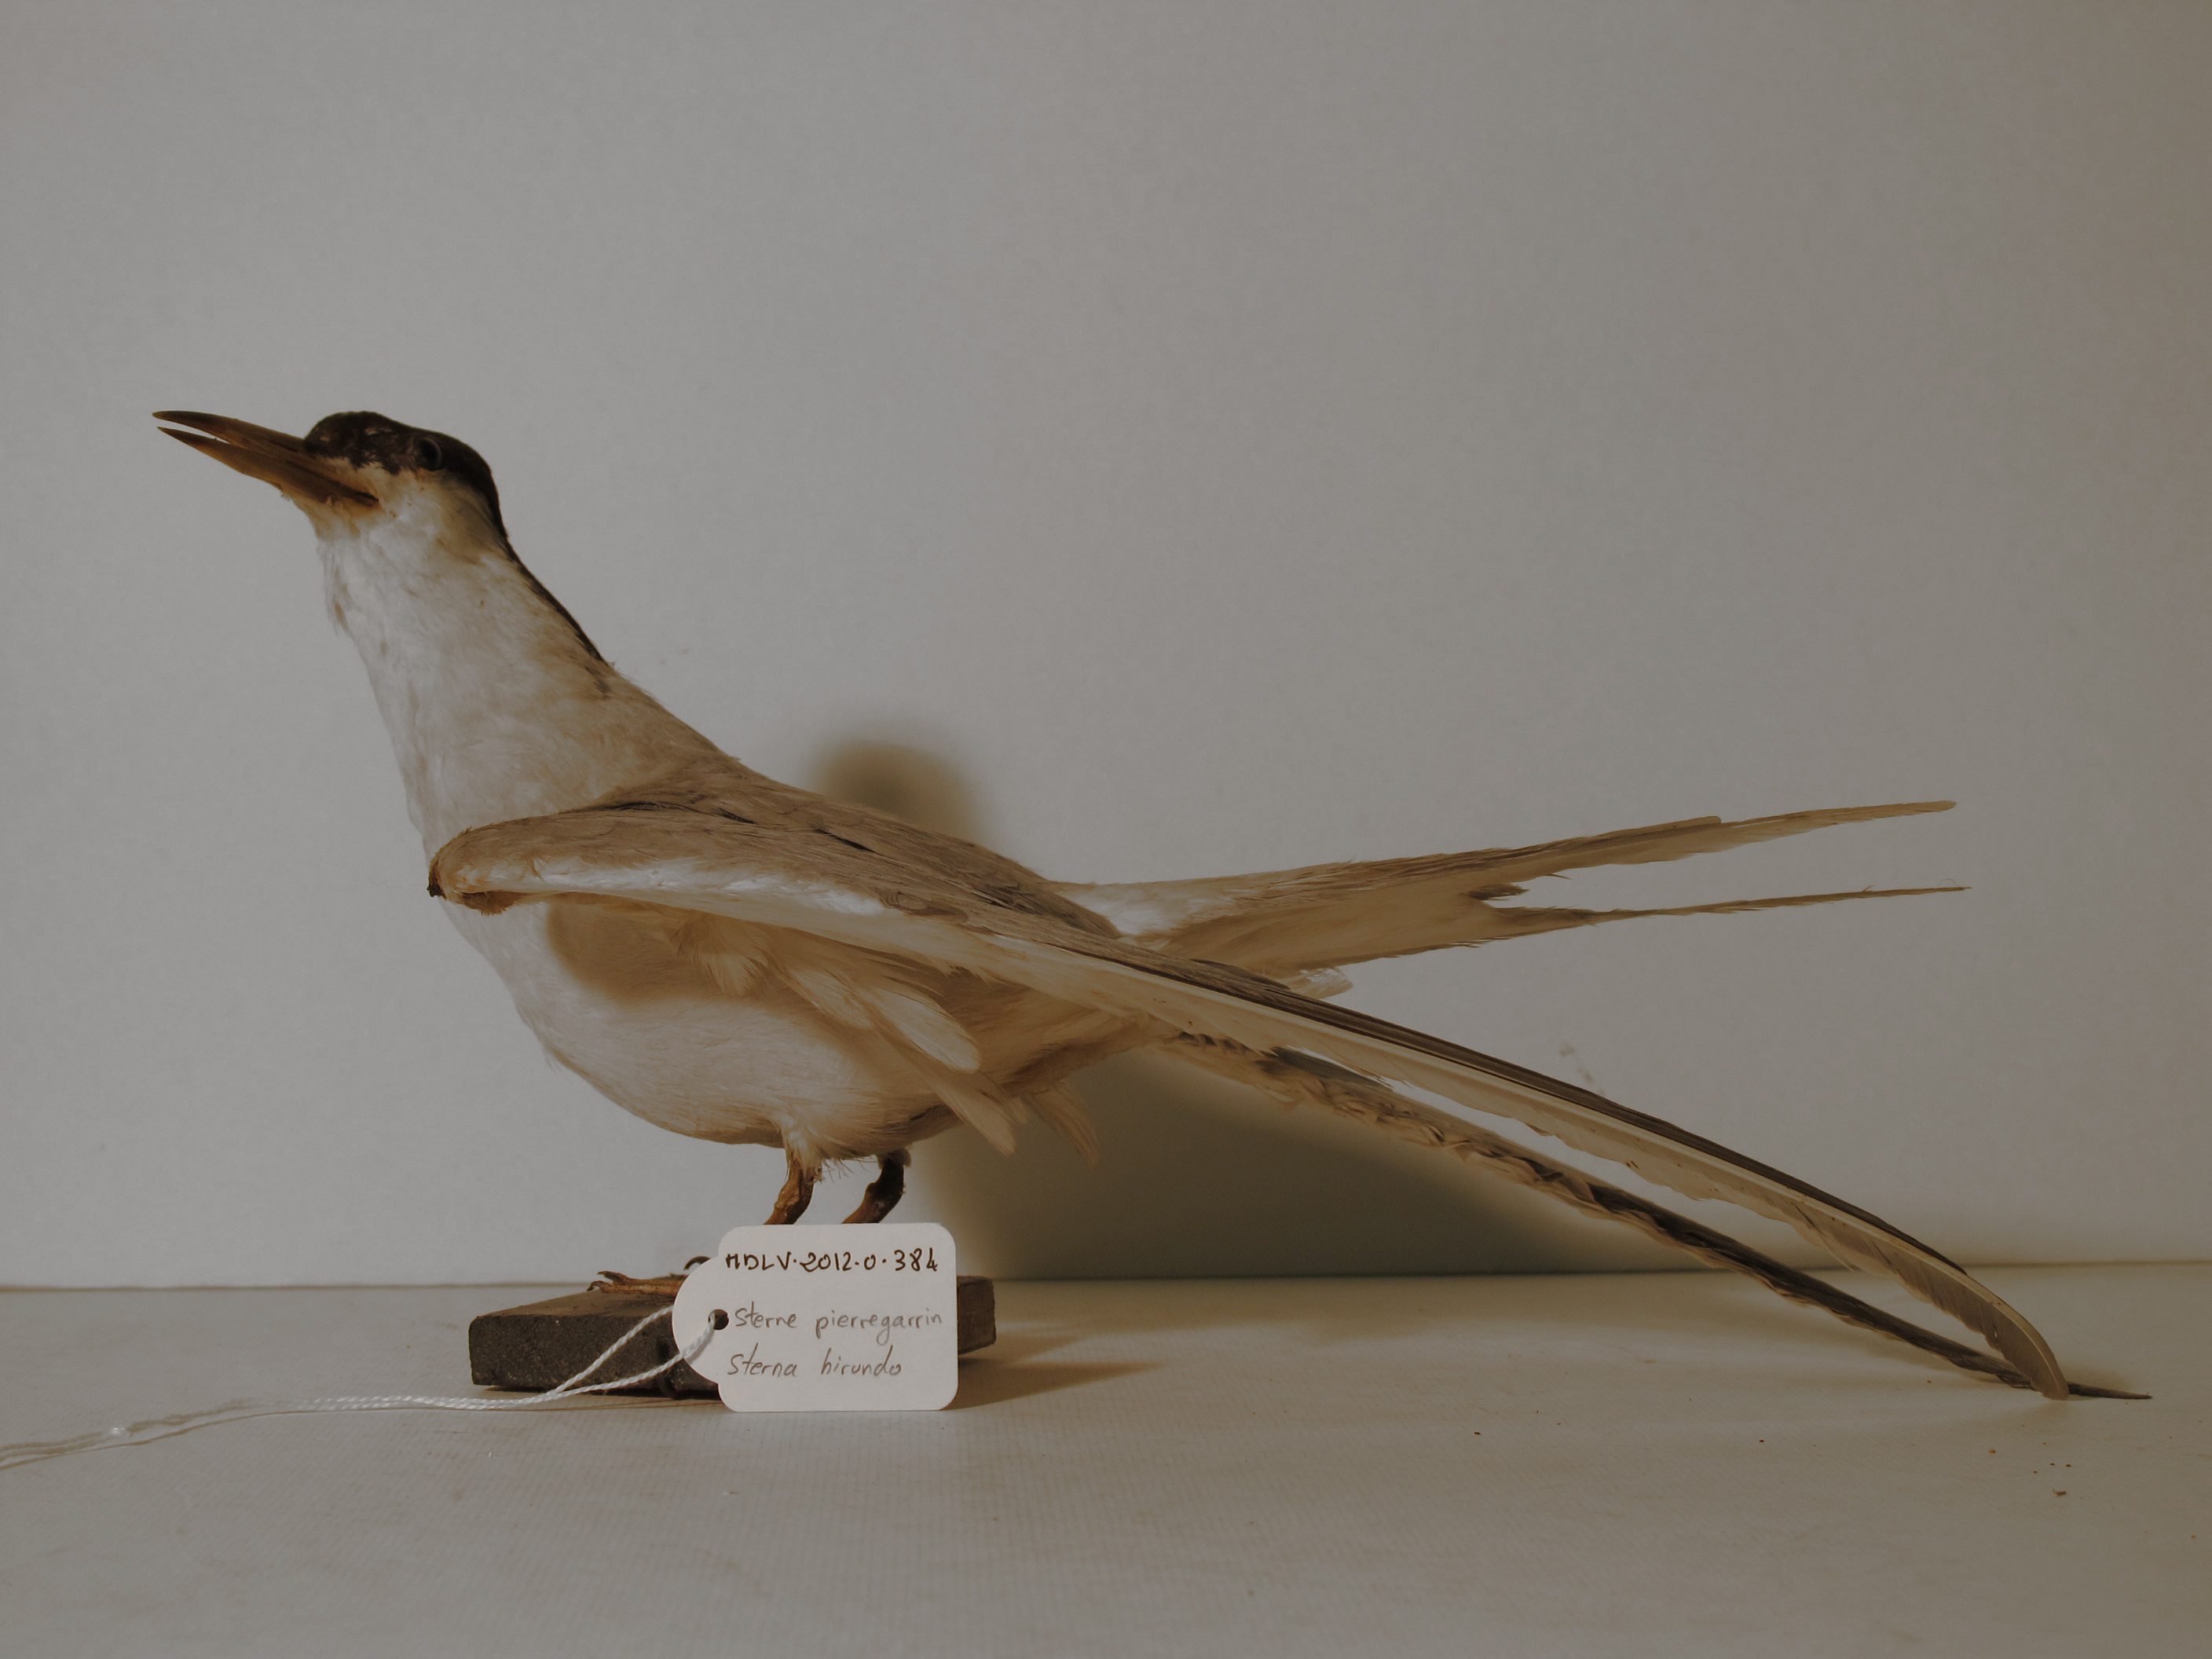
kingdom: Animalia
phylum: Chordata
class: Aves
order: Charadriiformes
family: Laridae
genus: Sterna
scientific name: Sterna hirundo
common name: Common Tern
